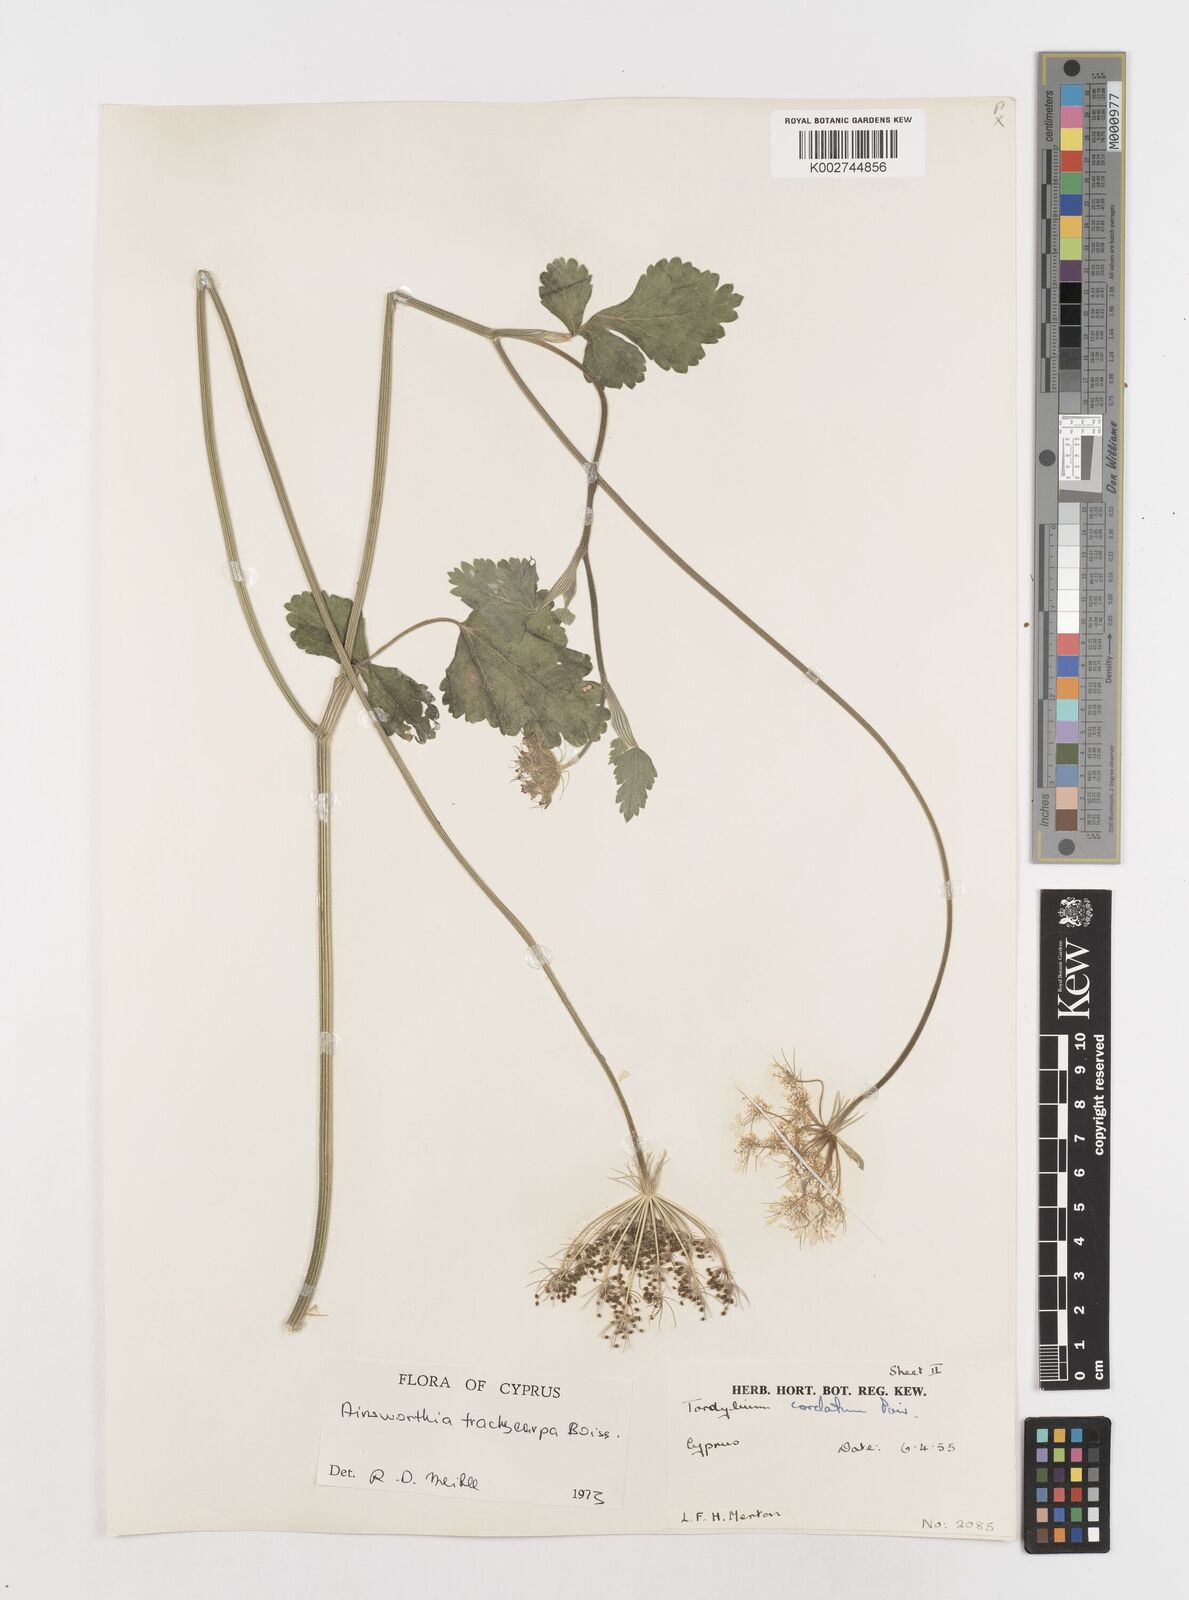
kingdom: Plantae
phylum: Tracheophyta
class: Magnoliopsida
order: Apiales
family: Apiaceae
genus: Ainsworthia
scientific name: Ainsworthia cordata
